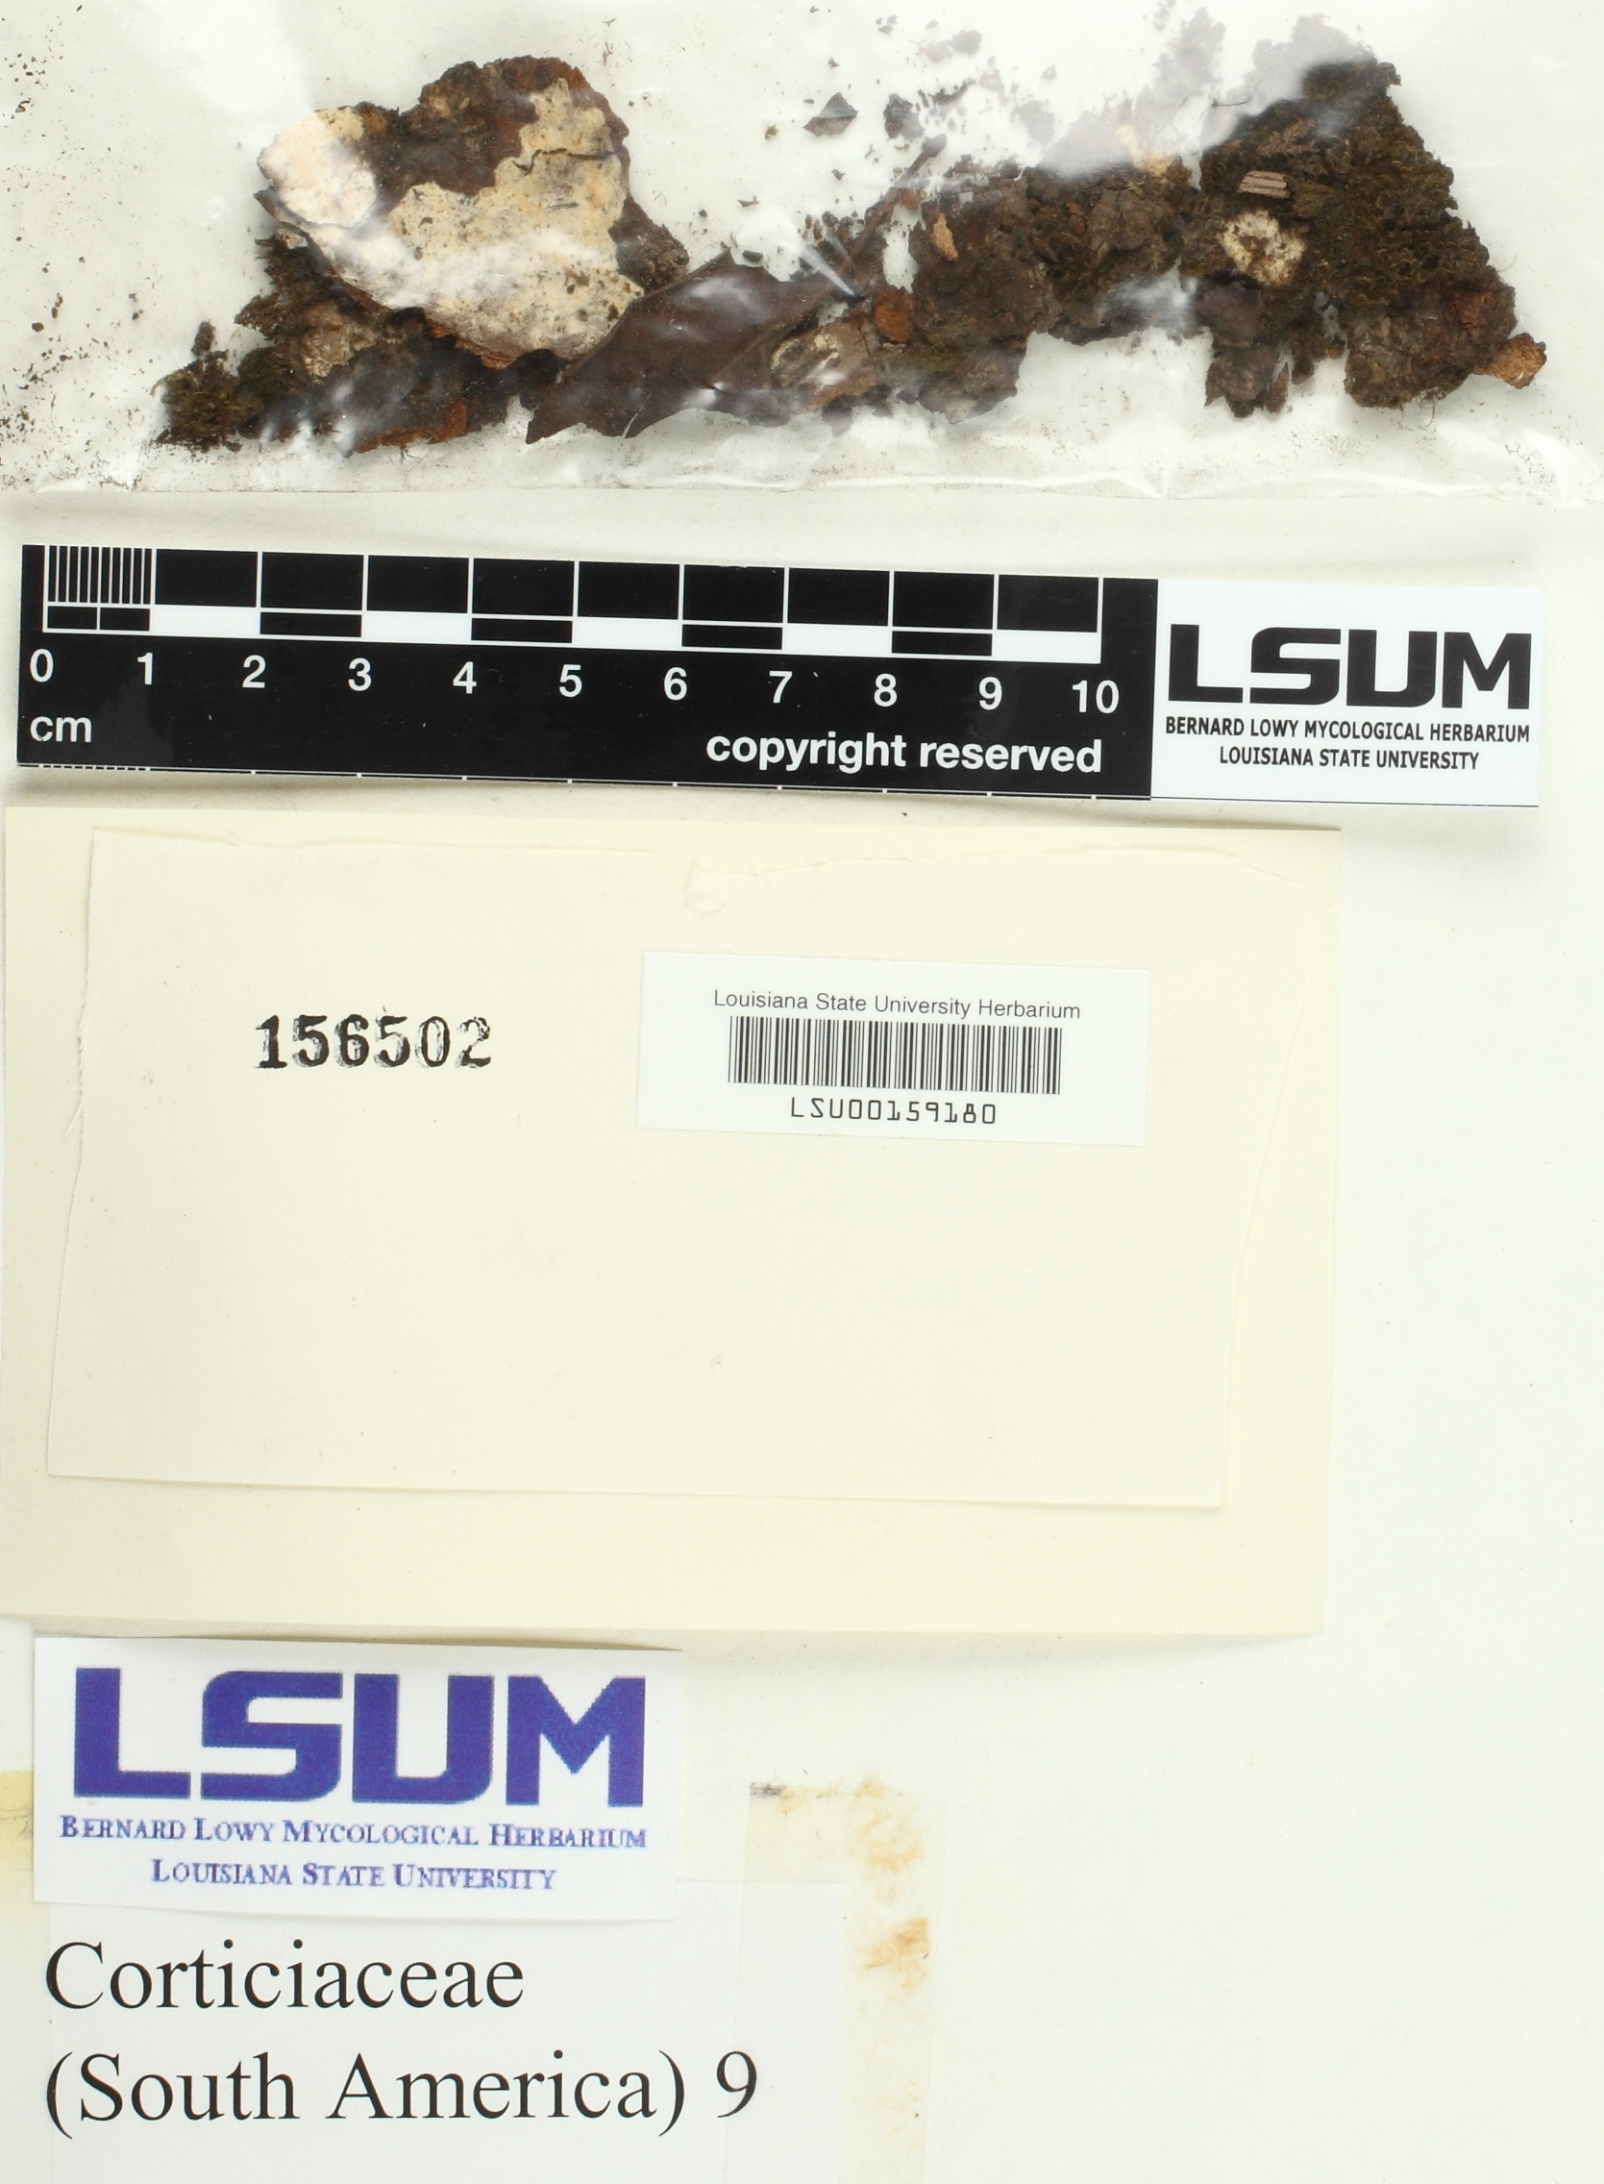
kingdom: Fungi
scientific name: Fungi
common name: Fungi
